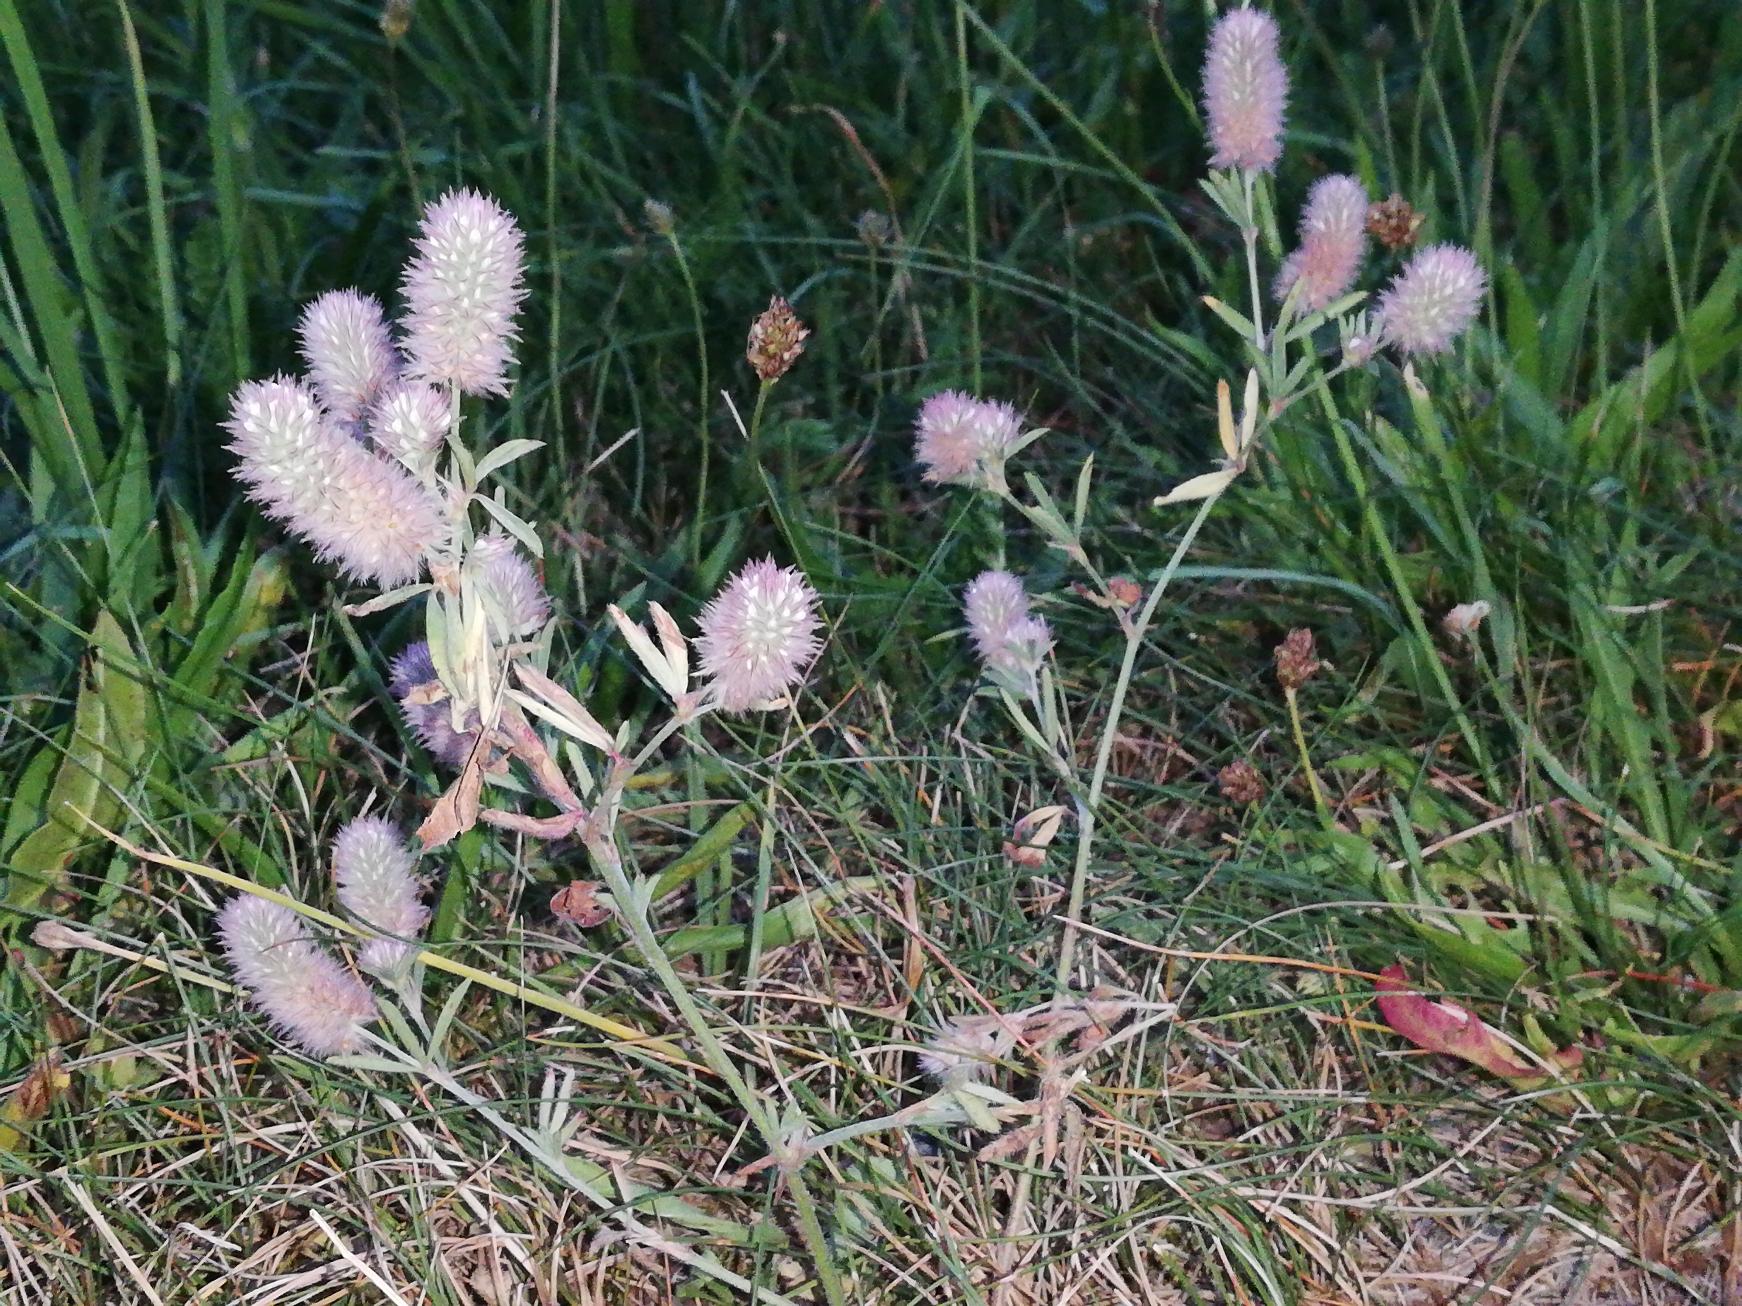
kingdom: Plantae
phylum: Tracheophyta
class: Magnoliopsida
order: Fabales
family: Fabaceae
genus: Trifolium
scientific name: Trifolium arvense
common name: Hare-kløver
